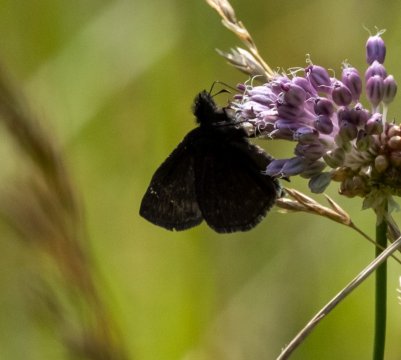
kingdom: Animalia
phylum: Arthropoda
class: Insecta
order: Lepidoptera
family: Hesperiidae
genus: Gesta
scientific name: Gesta
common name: Wild Indigo Duskywing
